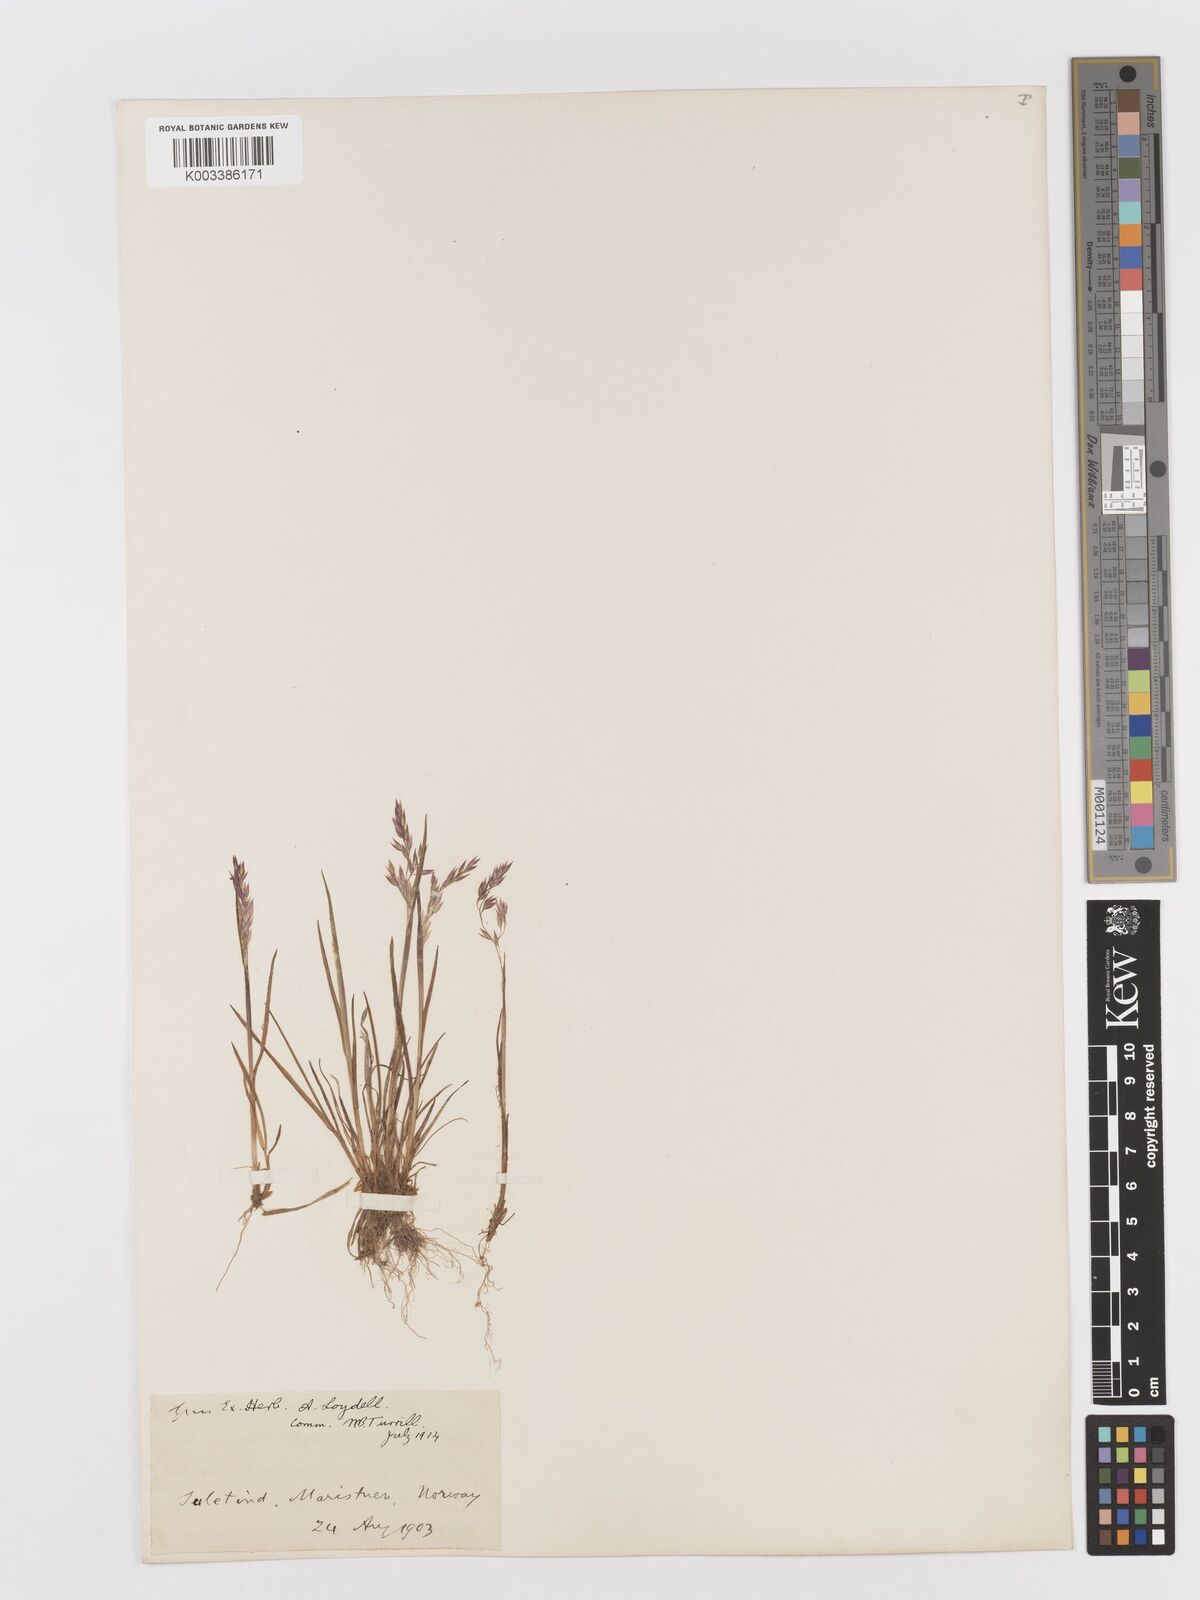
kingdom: Plantae
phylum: Tracheophyta
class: Liliopsida
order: Poales
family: Poaceae
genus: Vahlodea
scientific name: Vahlodea atropurpurea
